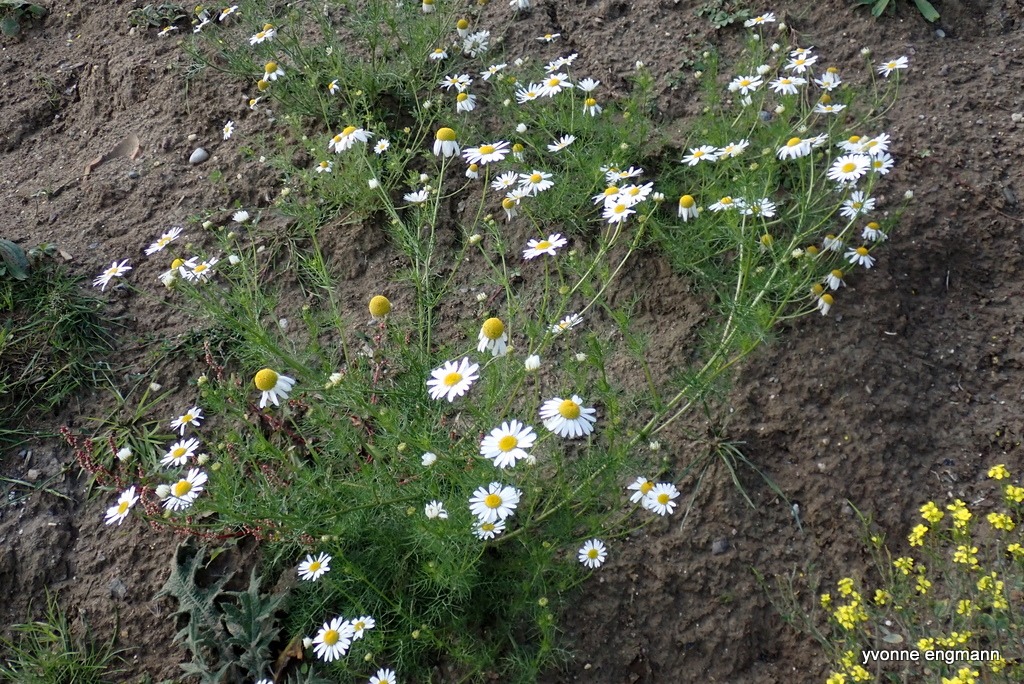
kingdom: Plantae
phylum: Tracheophyta
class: Magnoliopsida
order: Asterales
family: Asteraceae
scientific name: Asteraceae
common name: Kurvblomstfamilien
